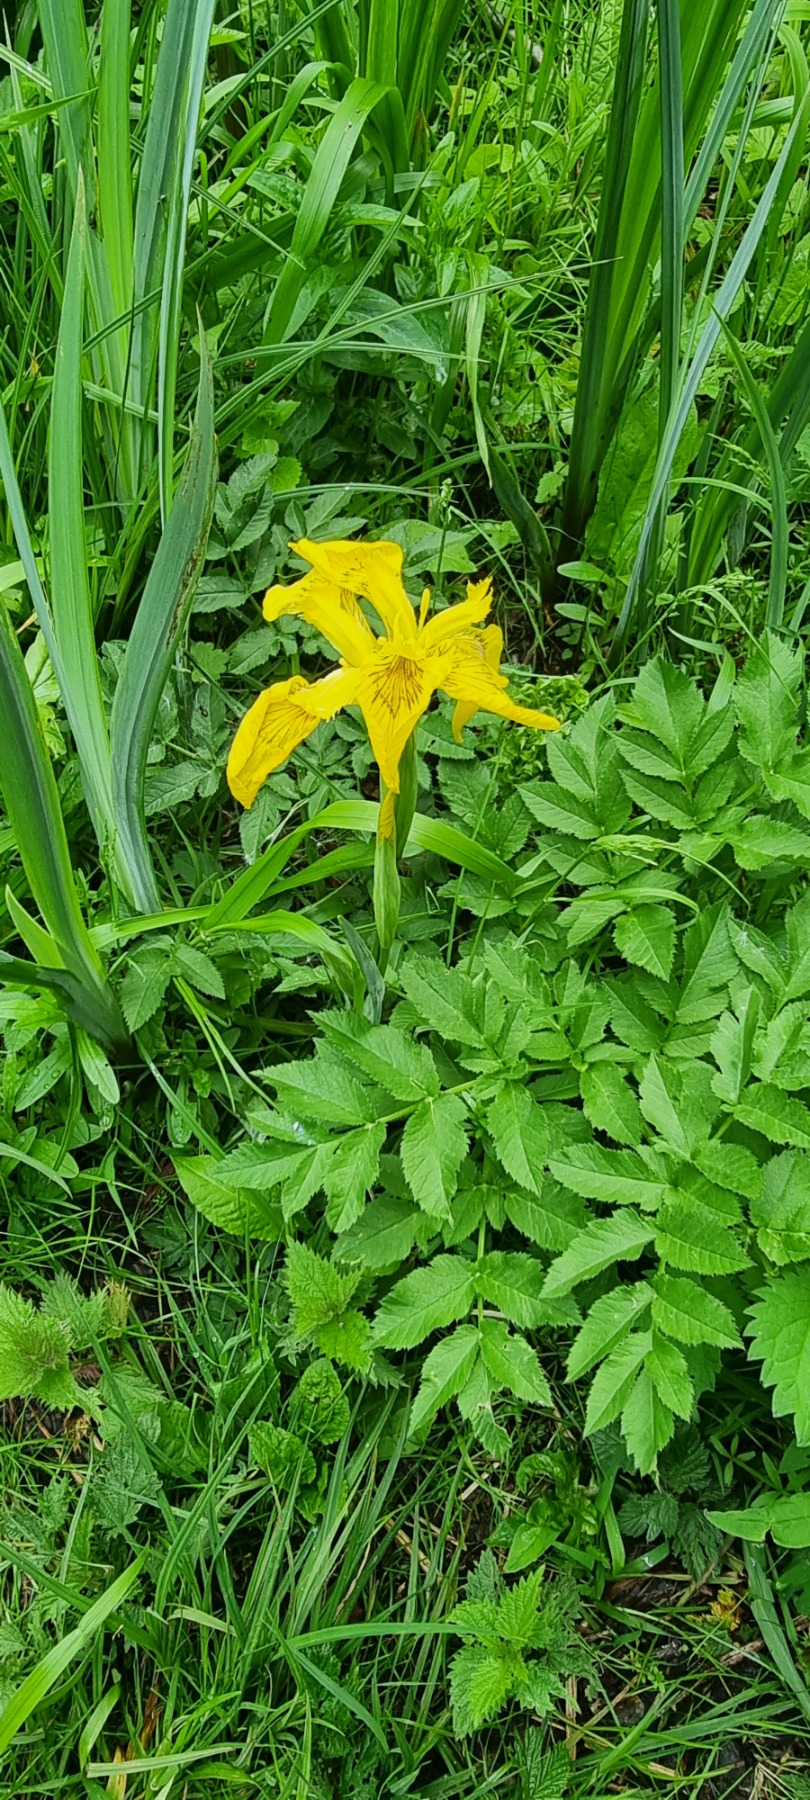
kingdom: Plantae
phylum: Tracheophyta
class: Liliopsida
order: Asparagales
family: Iridaceae
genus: Iris
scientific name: Iris pseudacorus
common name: Gul iris
